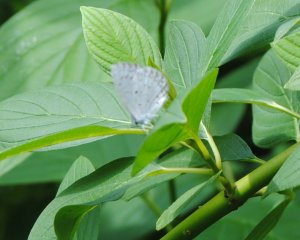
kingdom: Animalia
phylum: Arthropoda
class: Insecta
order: Lepidoptera
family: Lycaenidae
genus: Cyaniris
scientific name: Cyaniris neglecta
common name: Summer Azure
